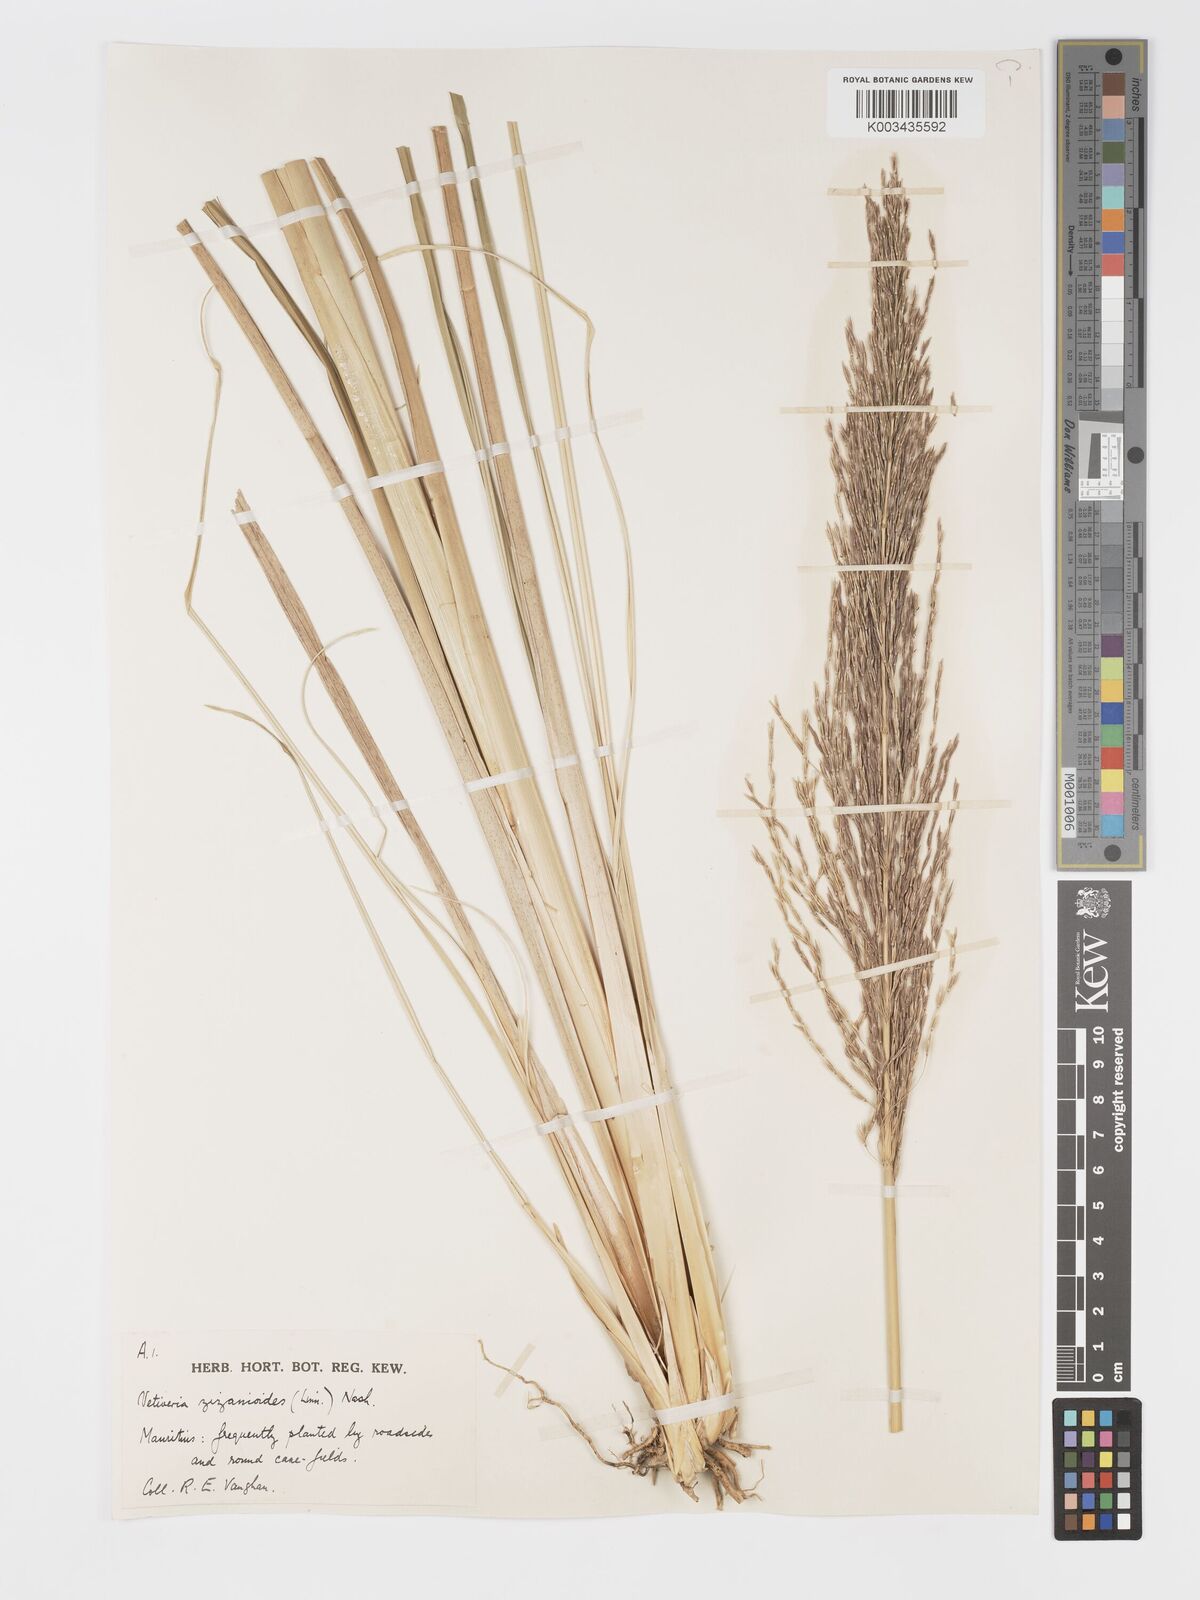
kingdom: Plantae
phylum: Tracheophyta
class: Liliopsida
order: Poales
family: Poaceae
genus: Chrysopogon
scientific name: Chrysopogon zizanioides
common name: False beardgrass
